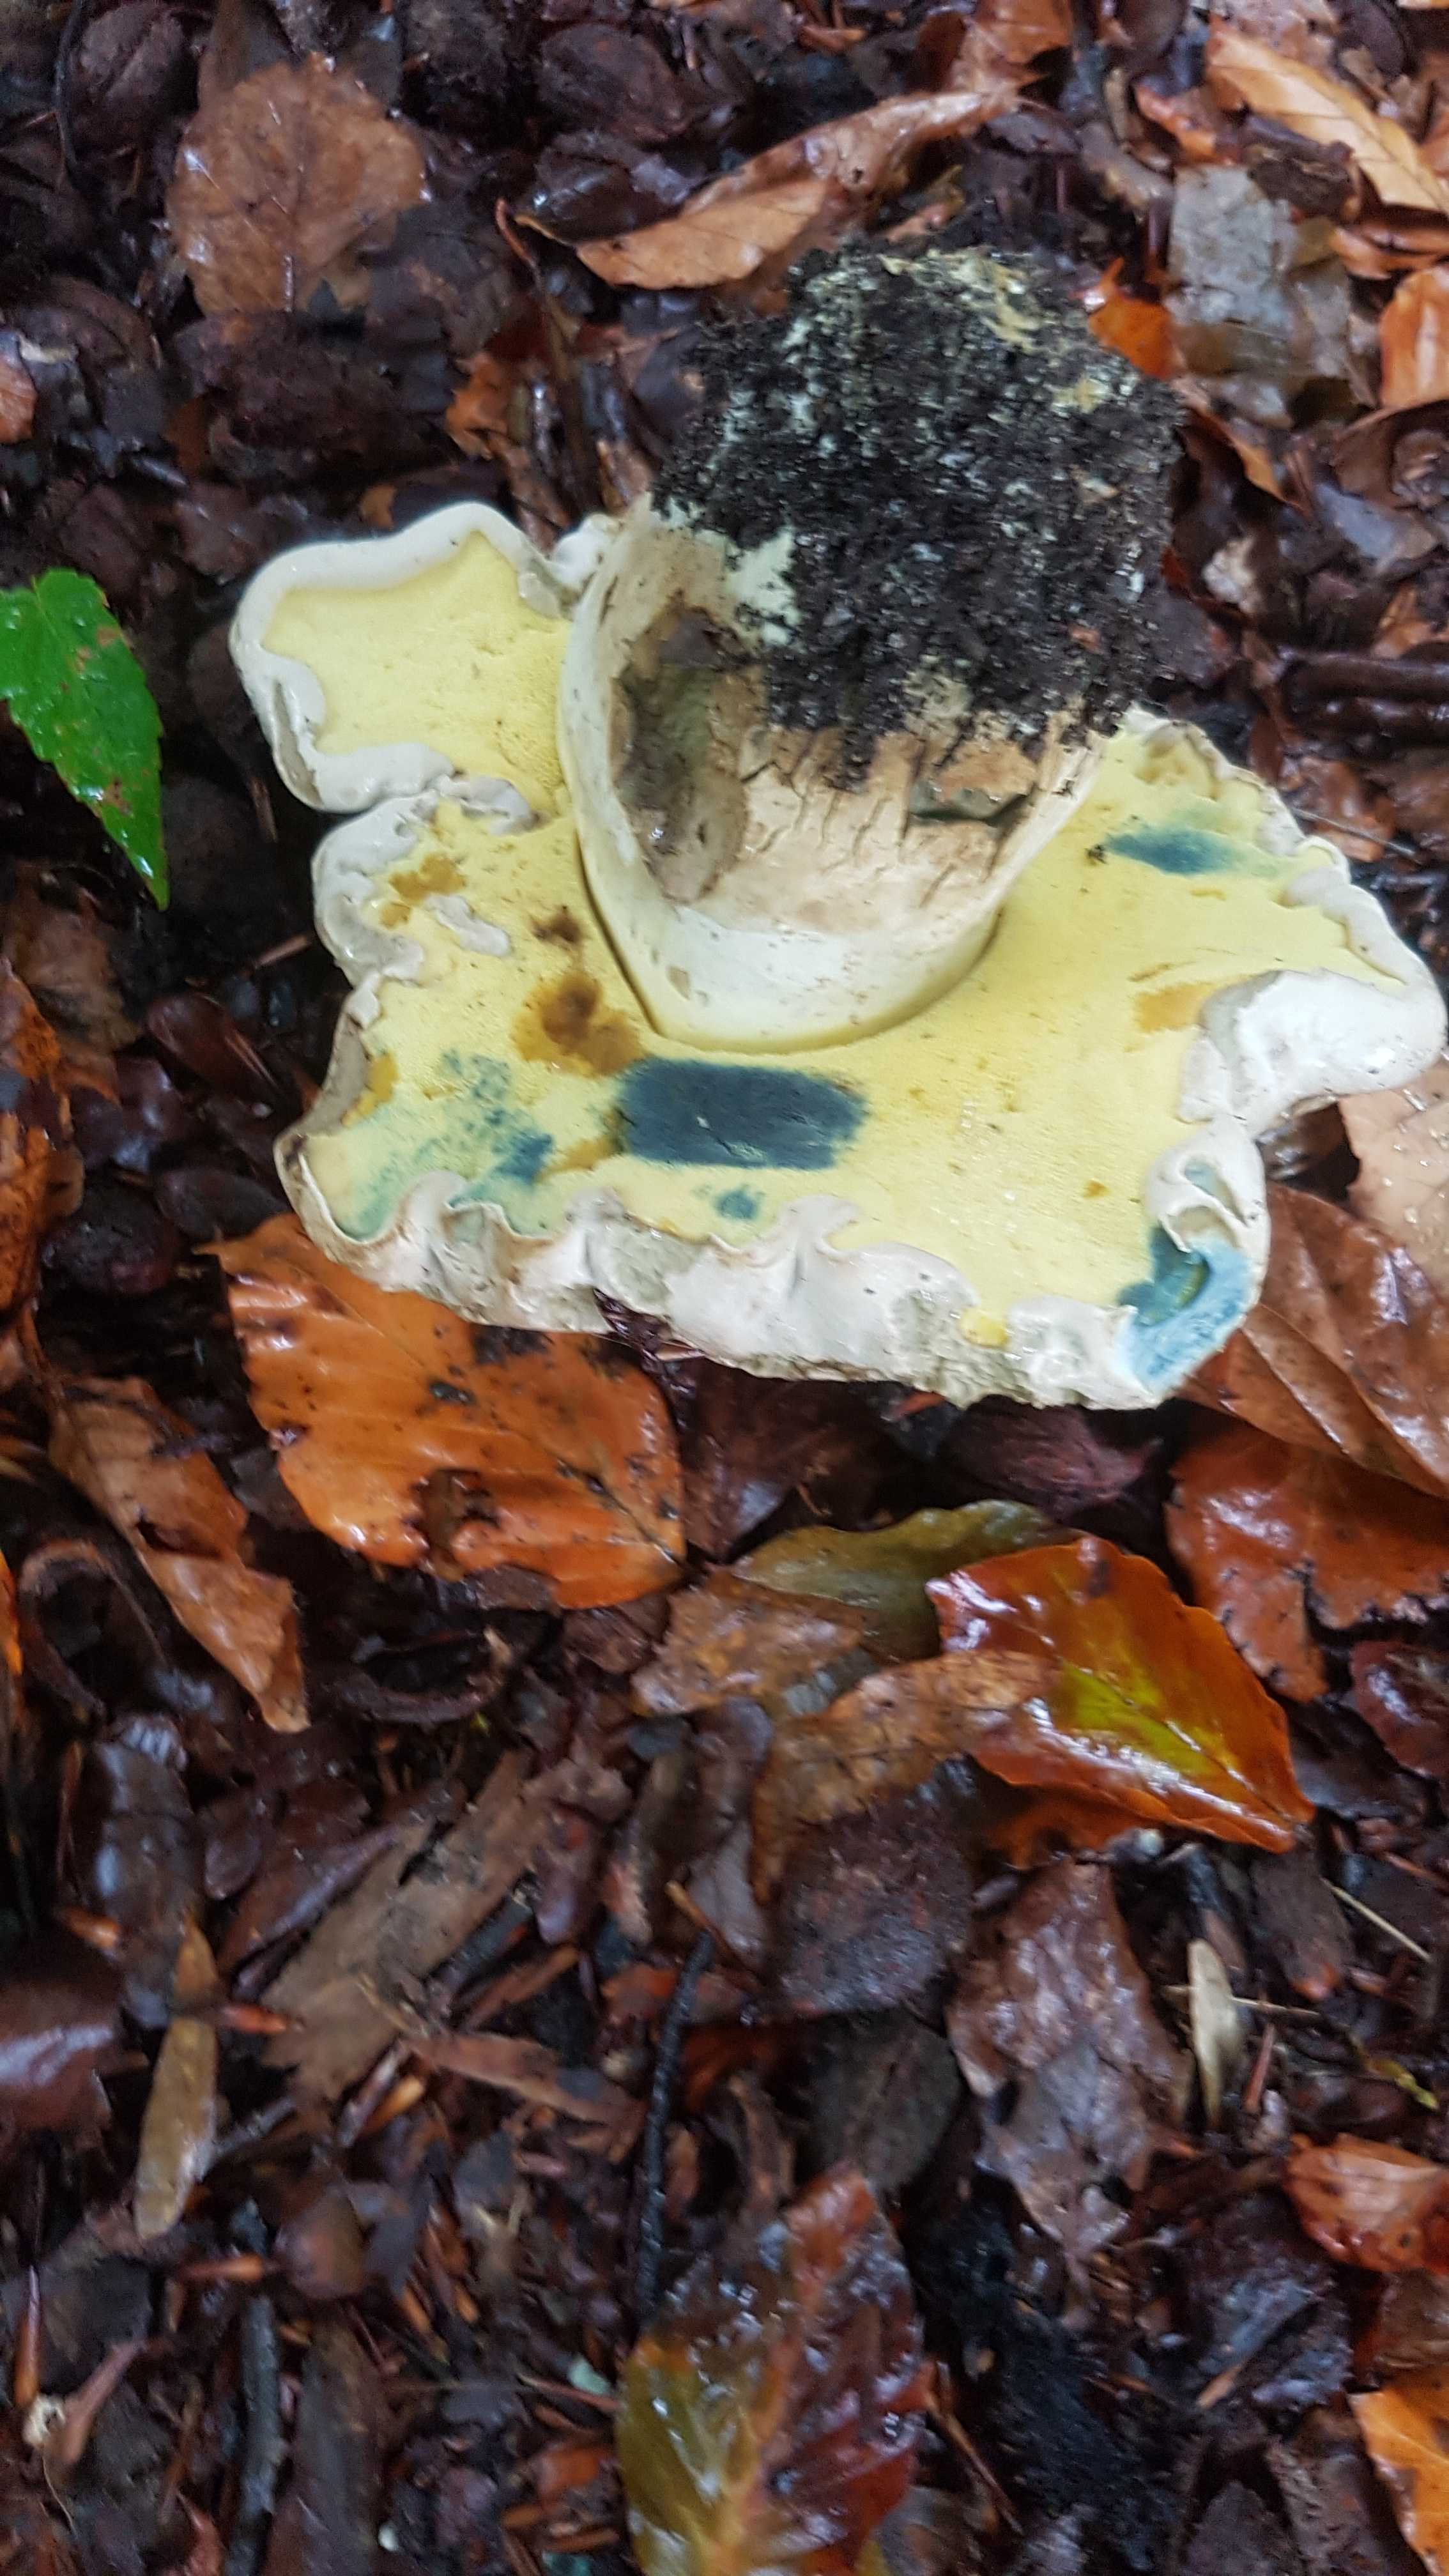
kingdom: Fungi
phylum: Basidiomycota
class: Agaricomycetes
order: Boletales
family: Boletaceae
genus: Caloboletus
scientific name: Caloboletus radicans
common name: rod-rørhat
